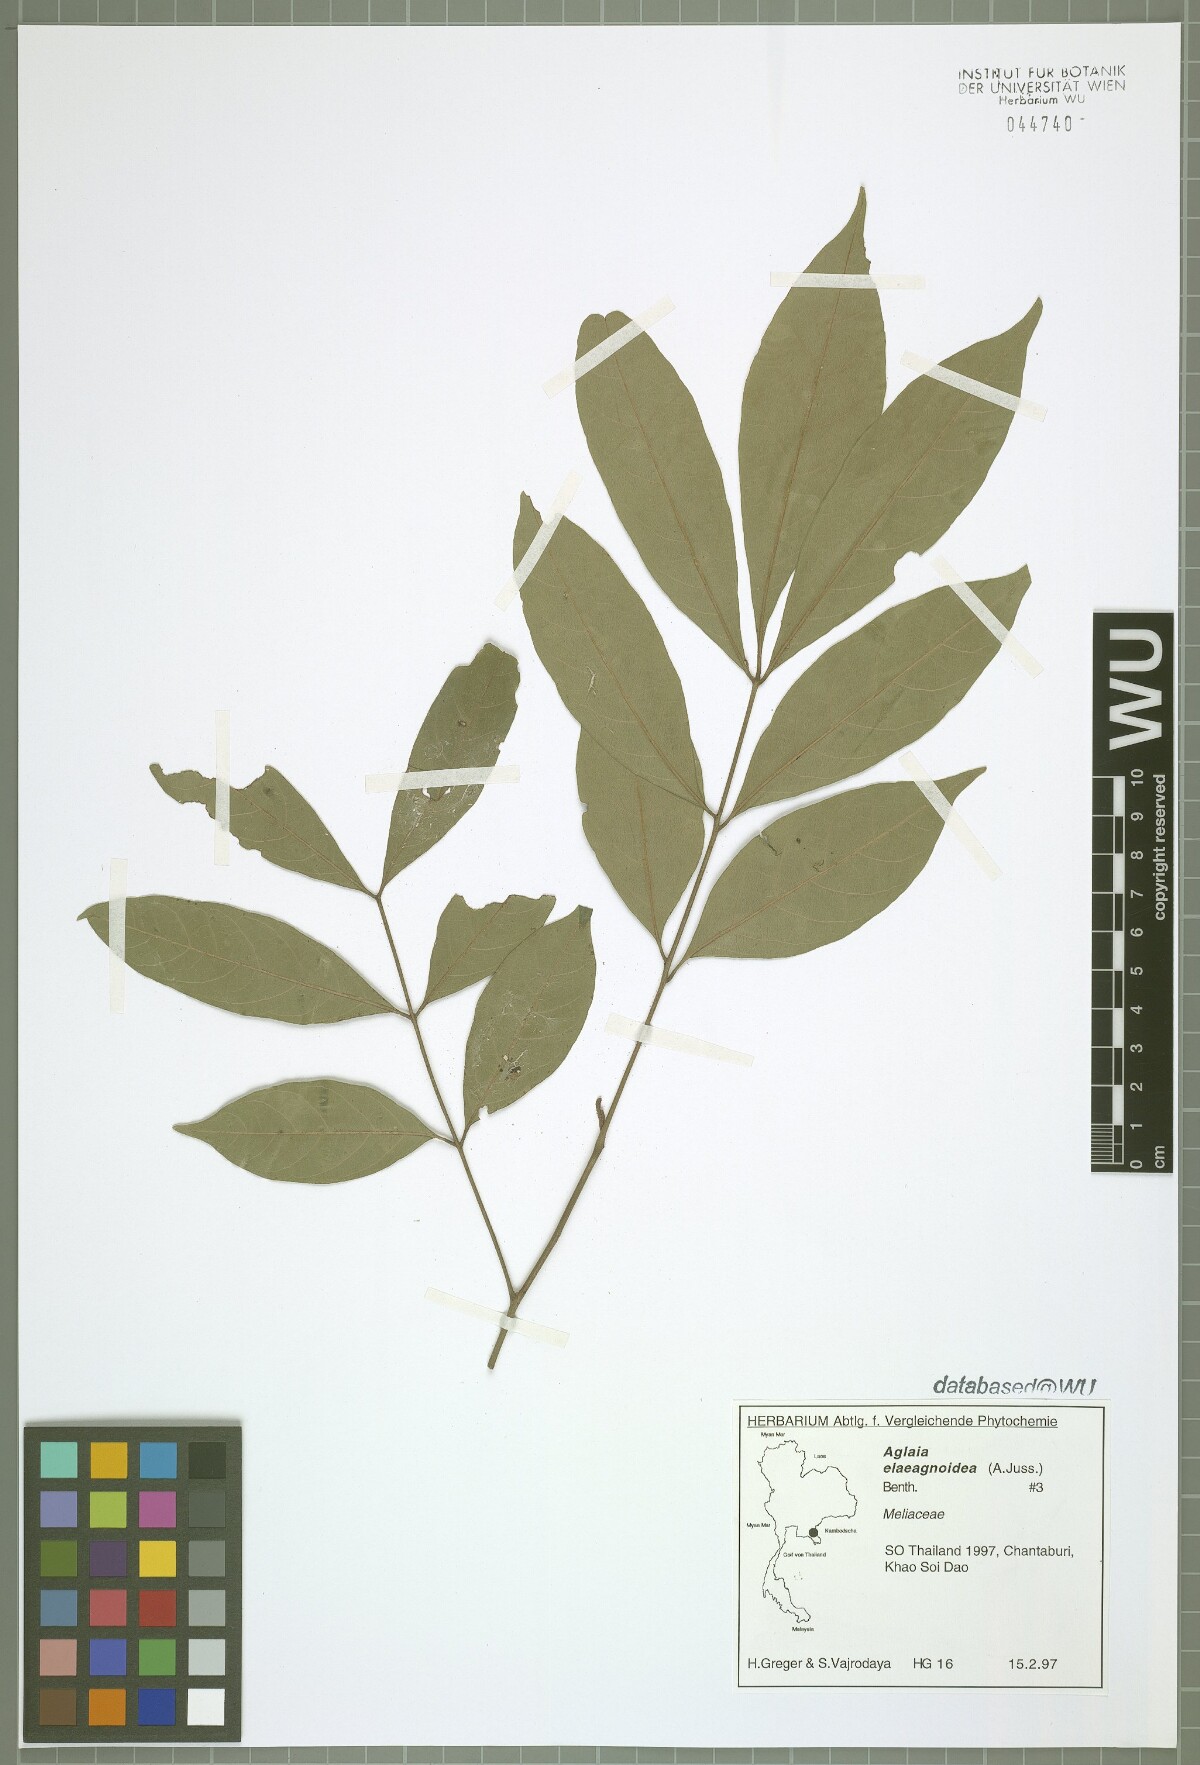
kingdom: Plantae
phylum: Tracheophyta
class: Magnoliopsida
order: Sapindales
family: Meliaceae
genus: Aglaia
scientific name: Aglaia elaeagnoidea
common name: Droopyleaf
